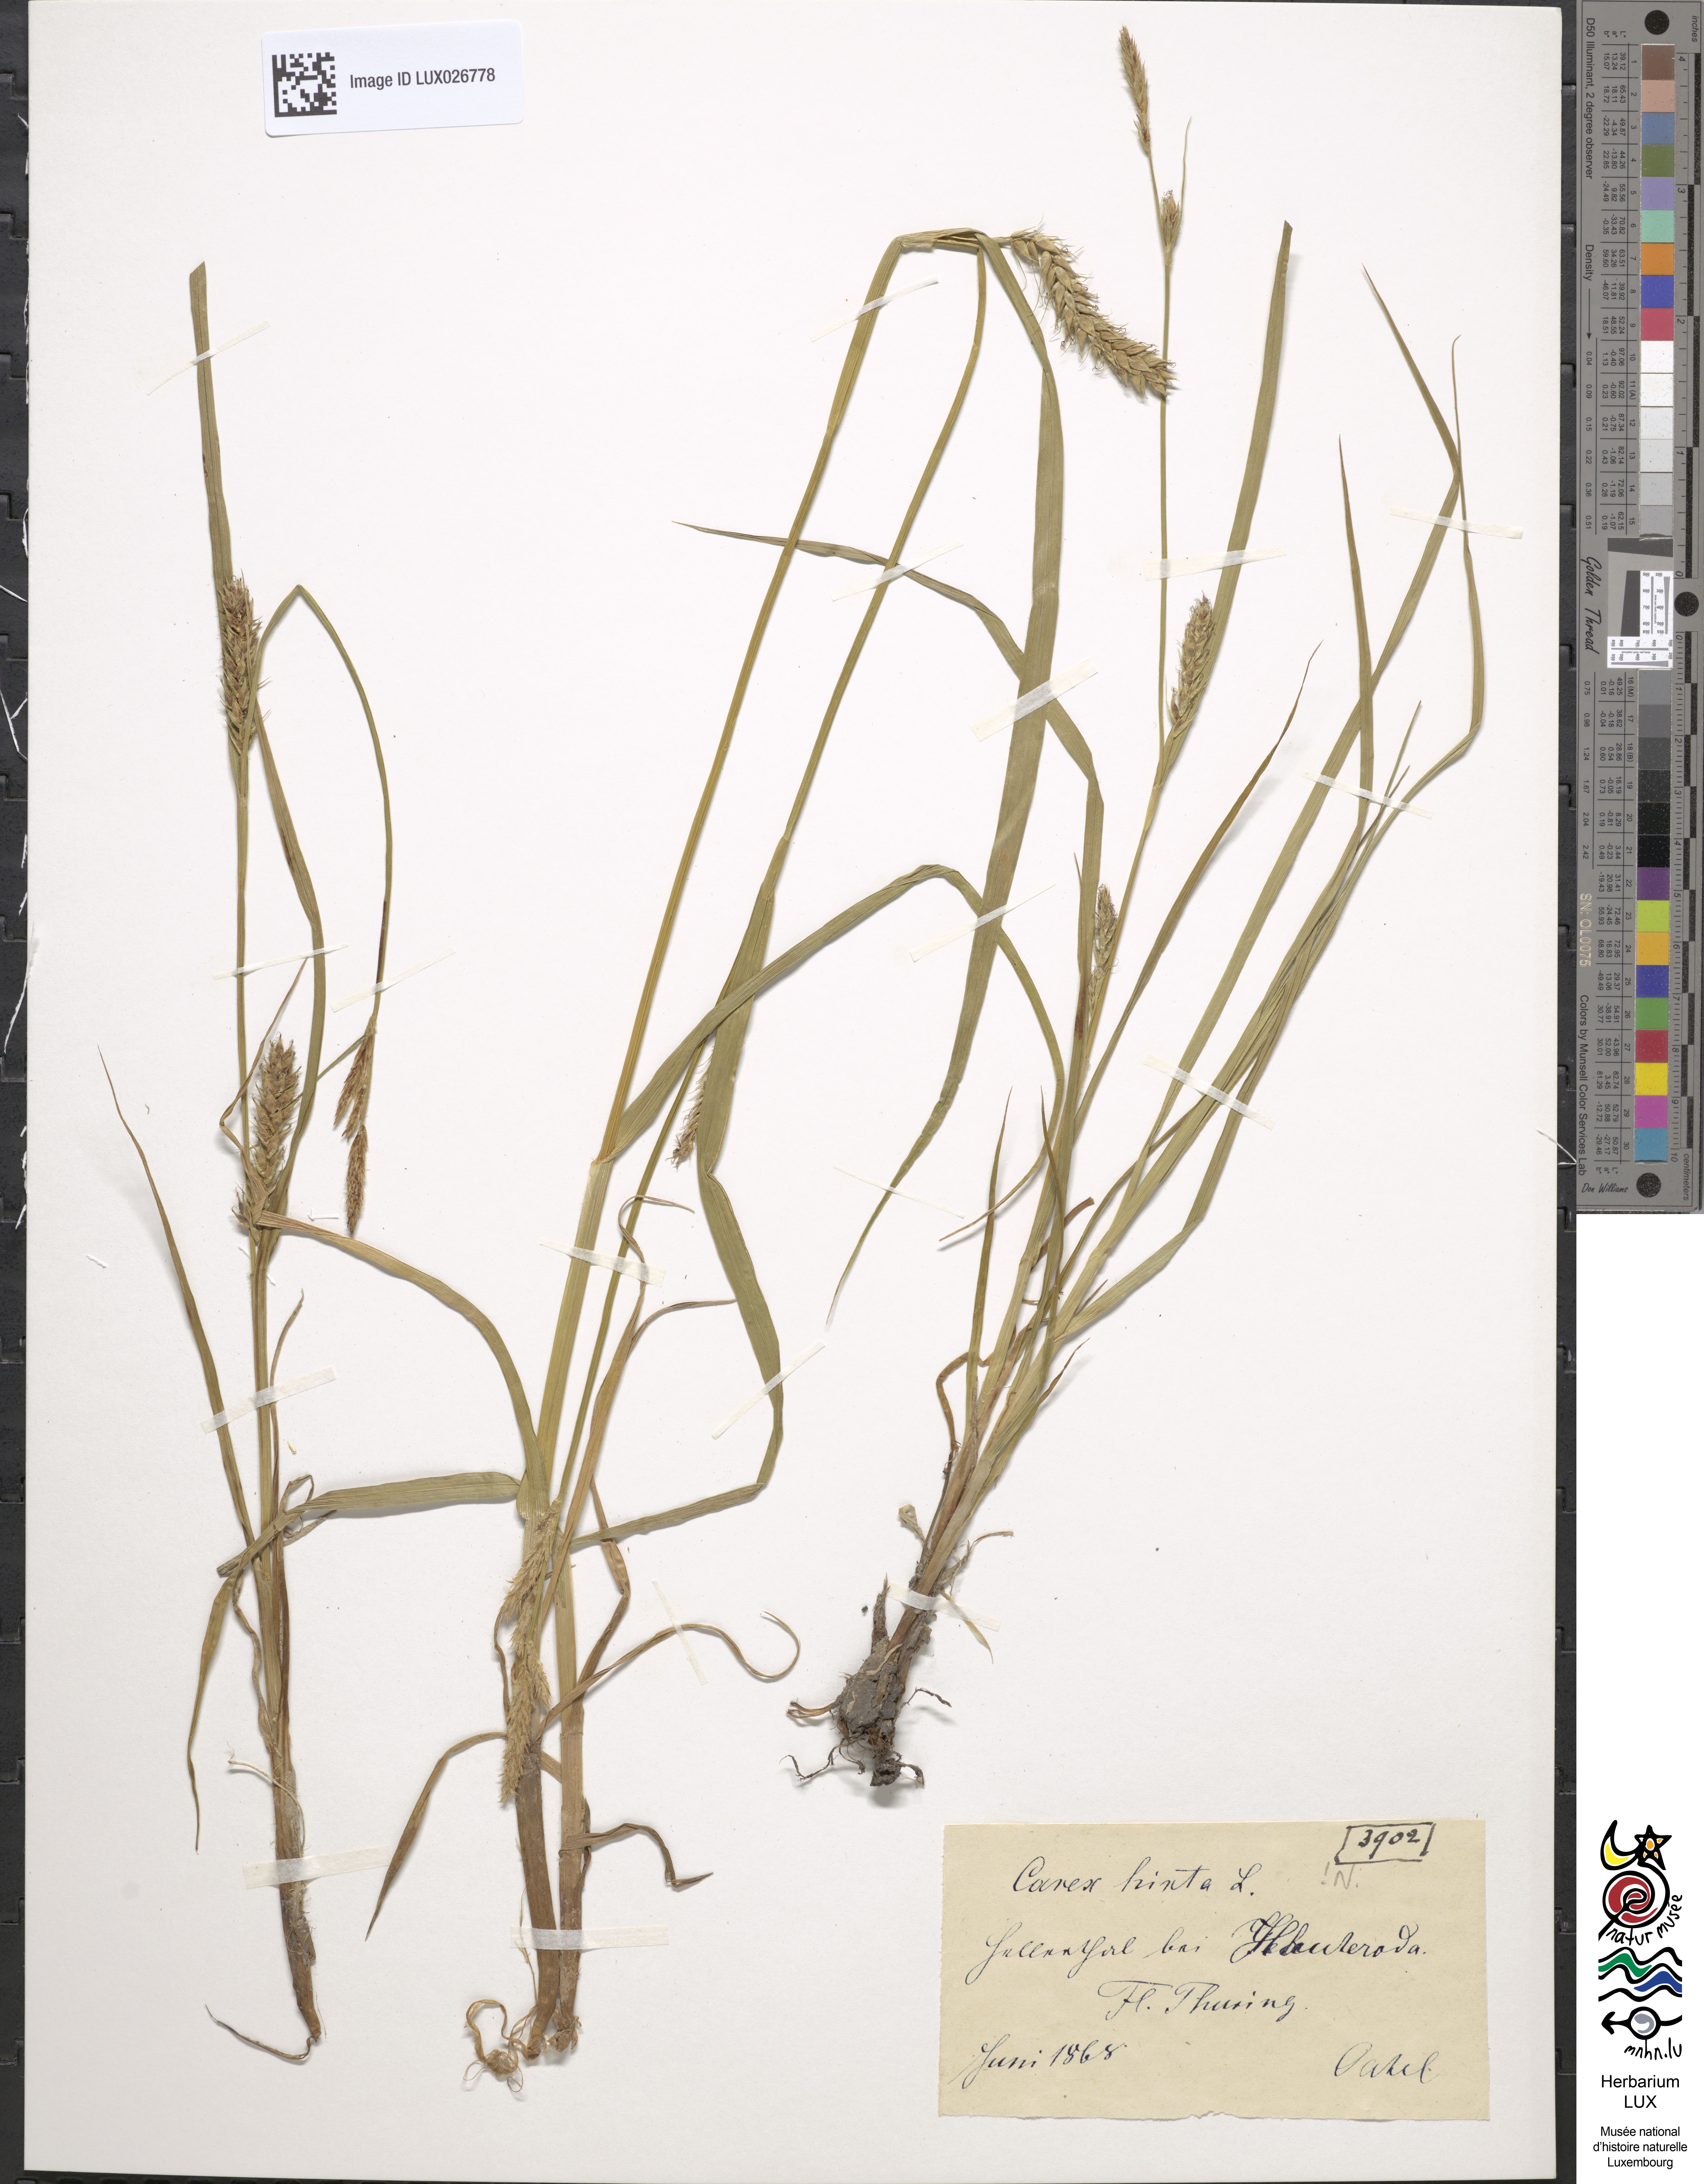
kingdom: Plantae
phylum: Tracheophyta
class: Liliopsida
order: Poales
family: Cyperaceae
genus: Carex
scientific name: Carex hirta
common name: Hairy sedge
